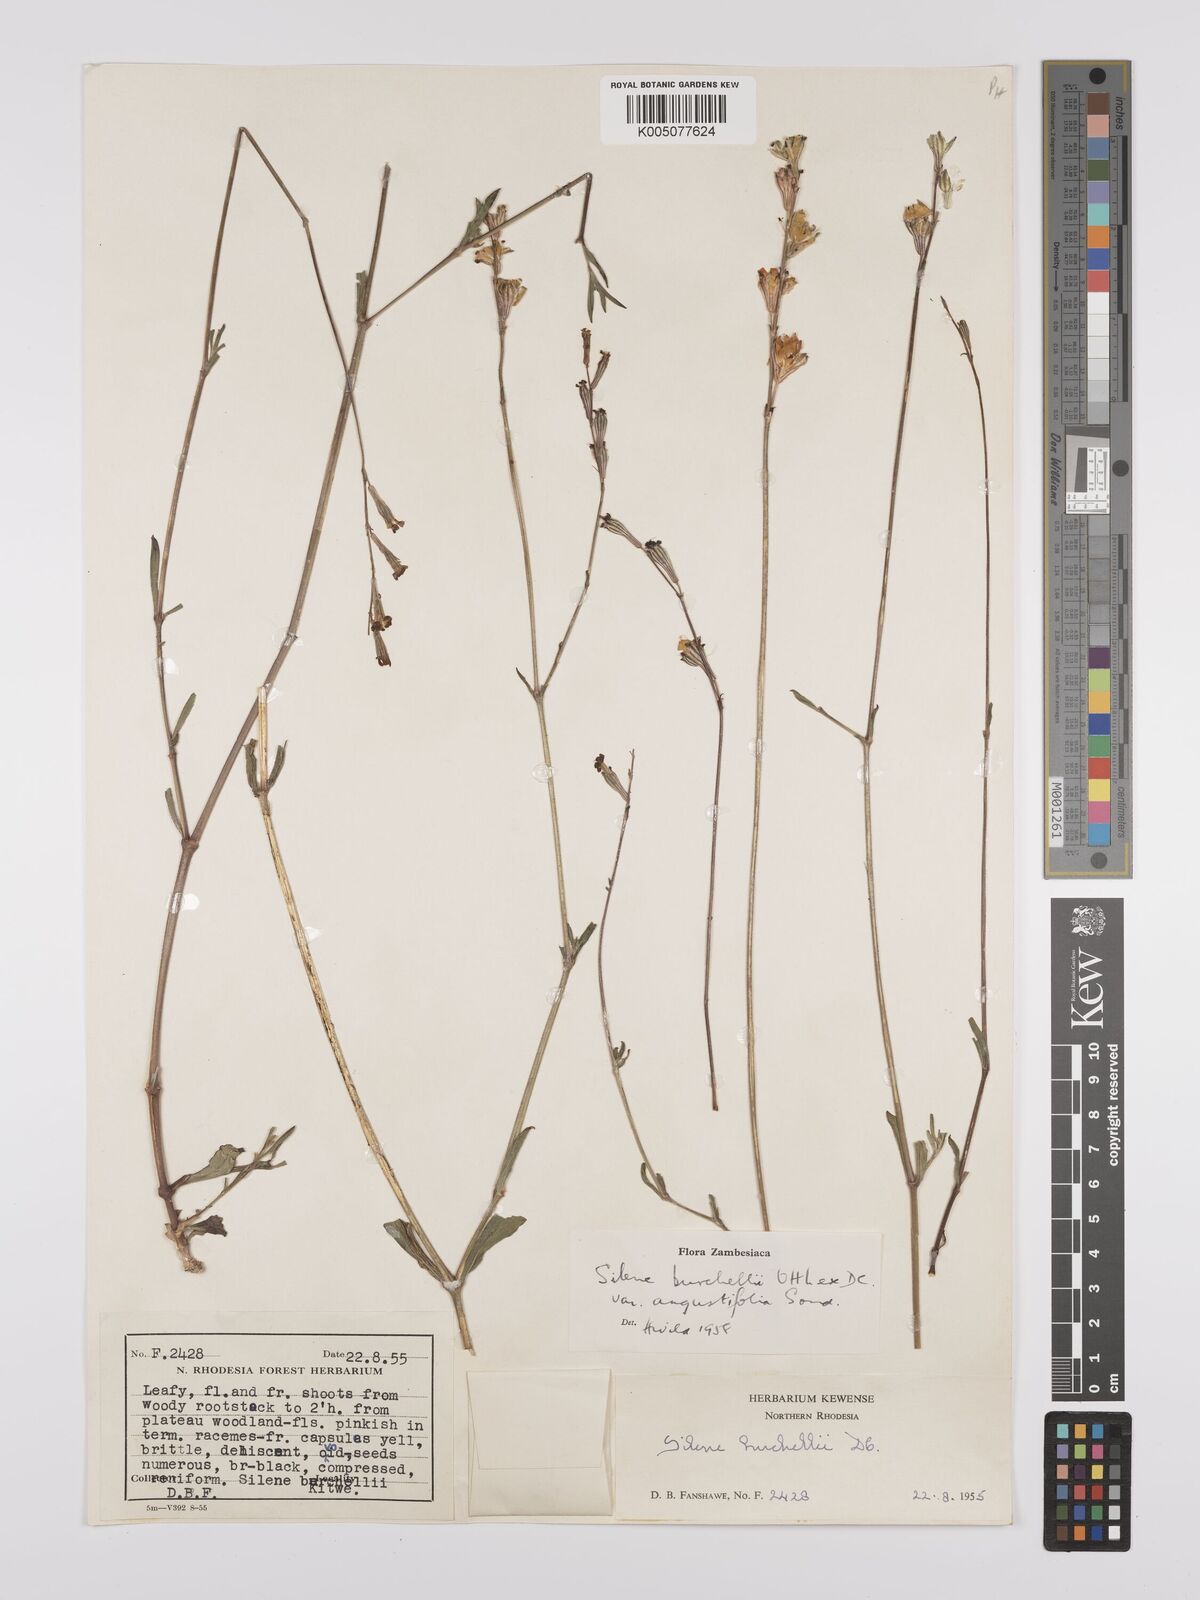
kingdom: Plantae
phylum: Tracheophyta
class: Magnoliopsida
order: Caryophyllales
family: Caryophyllaceae
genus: Silene
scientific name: Silene burchellii
